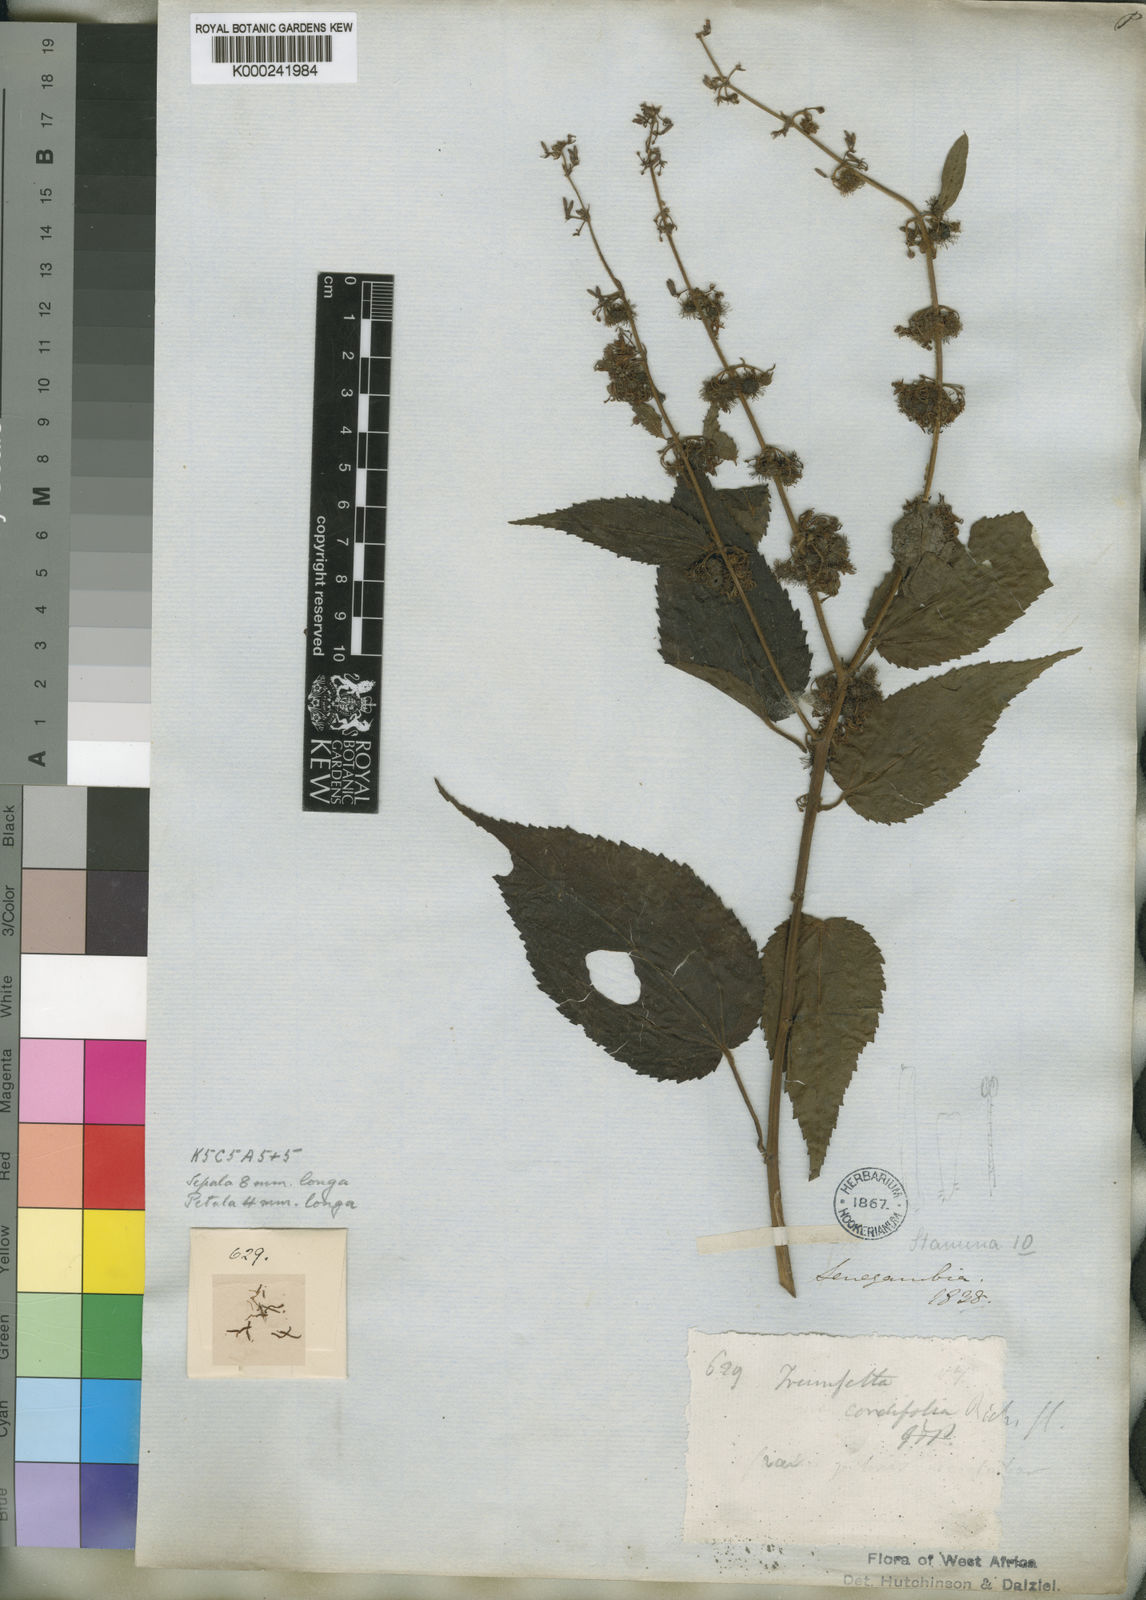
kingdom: Plantae
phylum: Tracheophyta
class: Magnoliopsida
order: Malvales
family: Malvaceae
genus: Triumfetta
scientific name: Triumfetta
